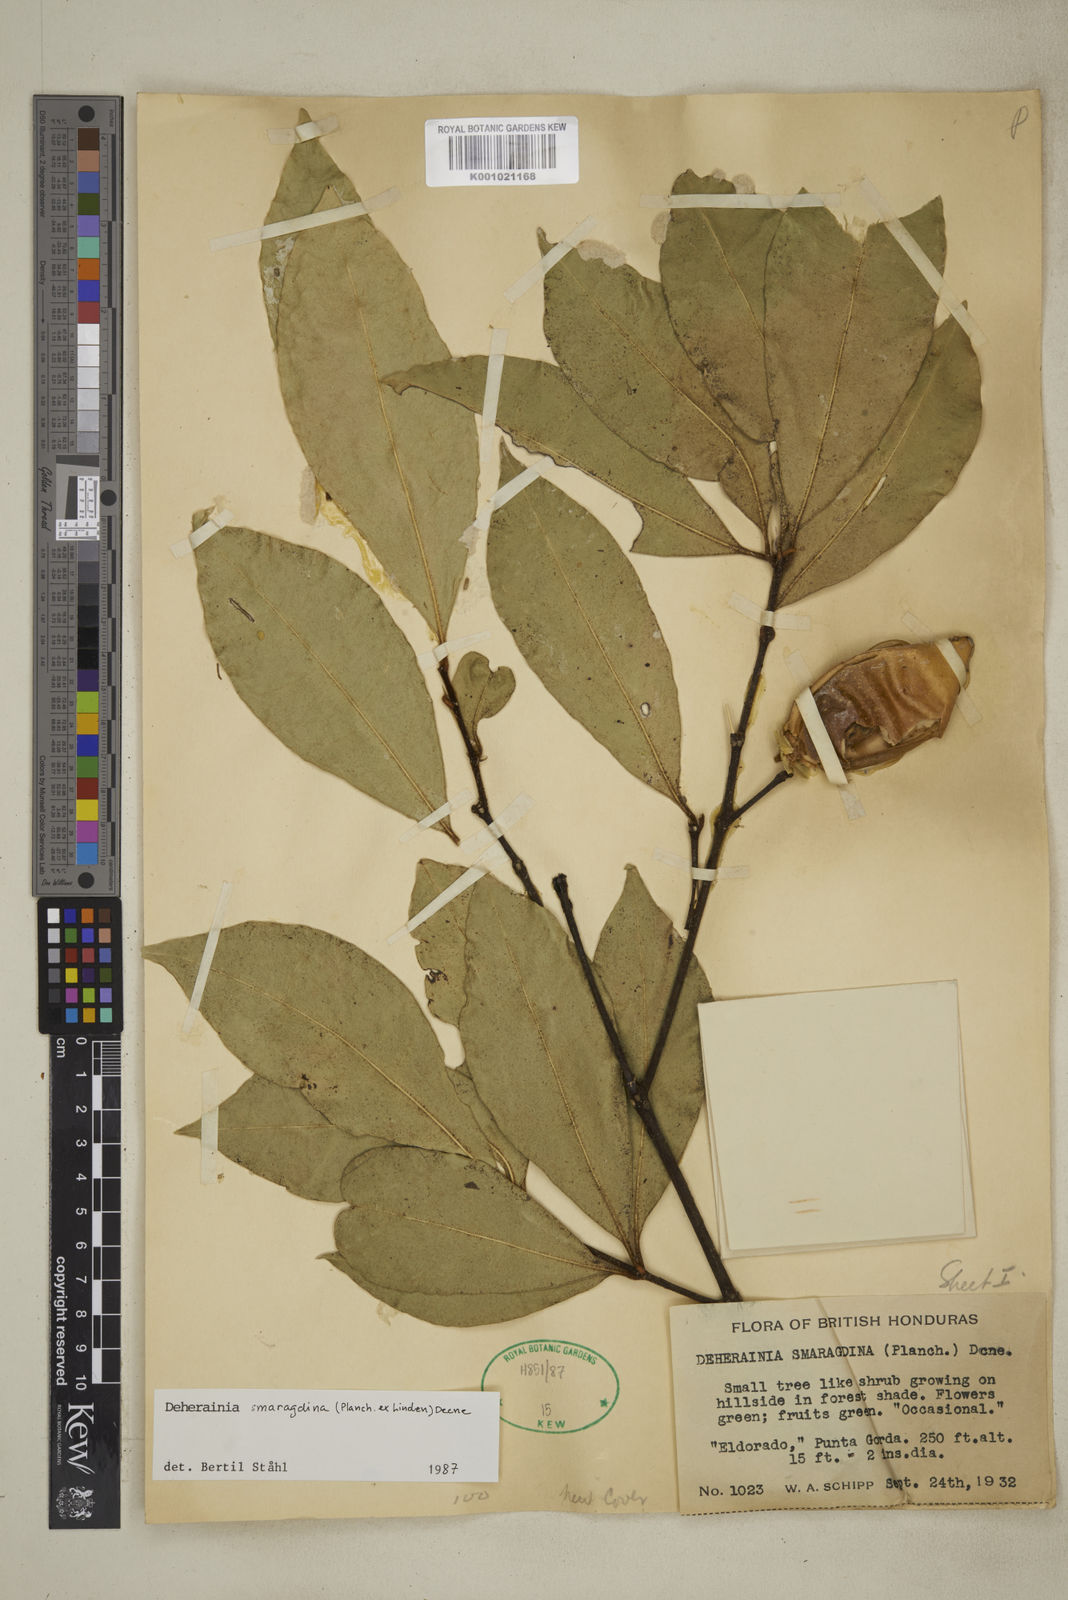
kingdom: Plantae
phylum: Tracheophyta
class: Magnoliopsida
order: Ericales
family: Primulaceae
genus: Deherainia
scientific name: Deherainia matudae
